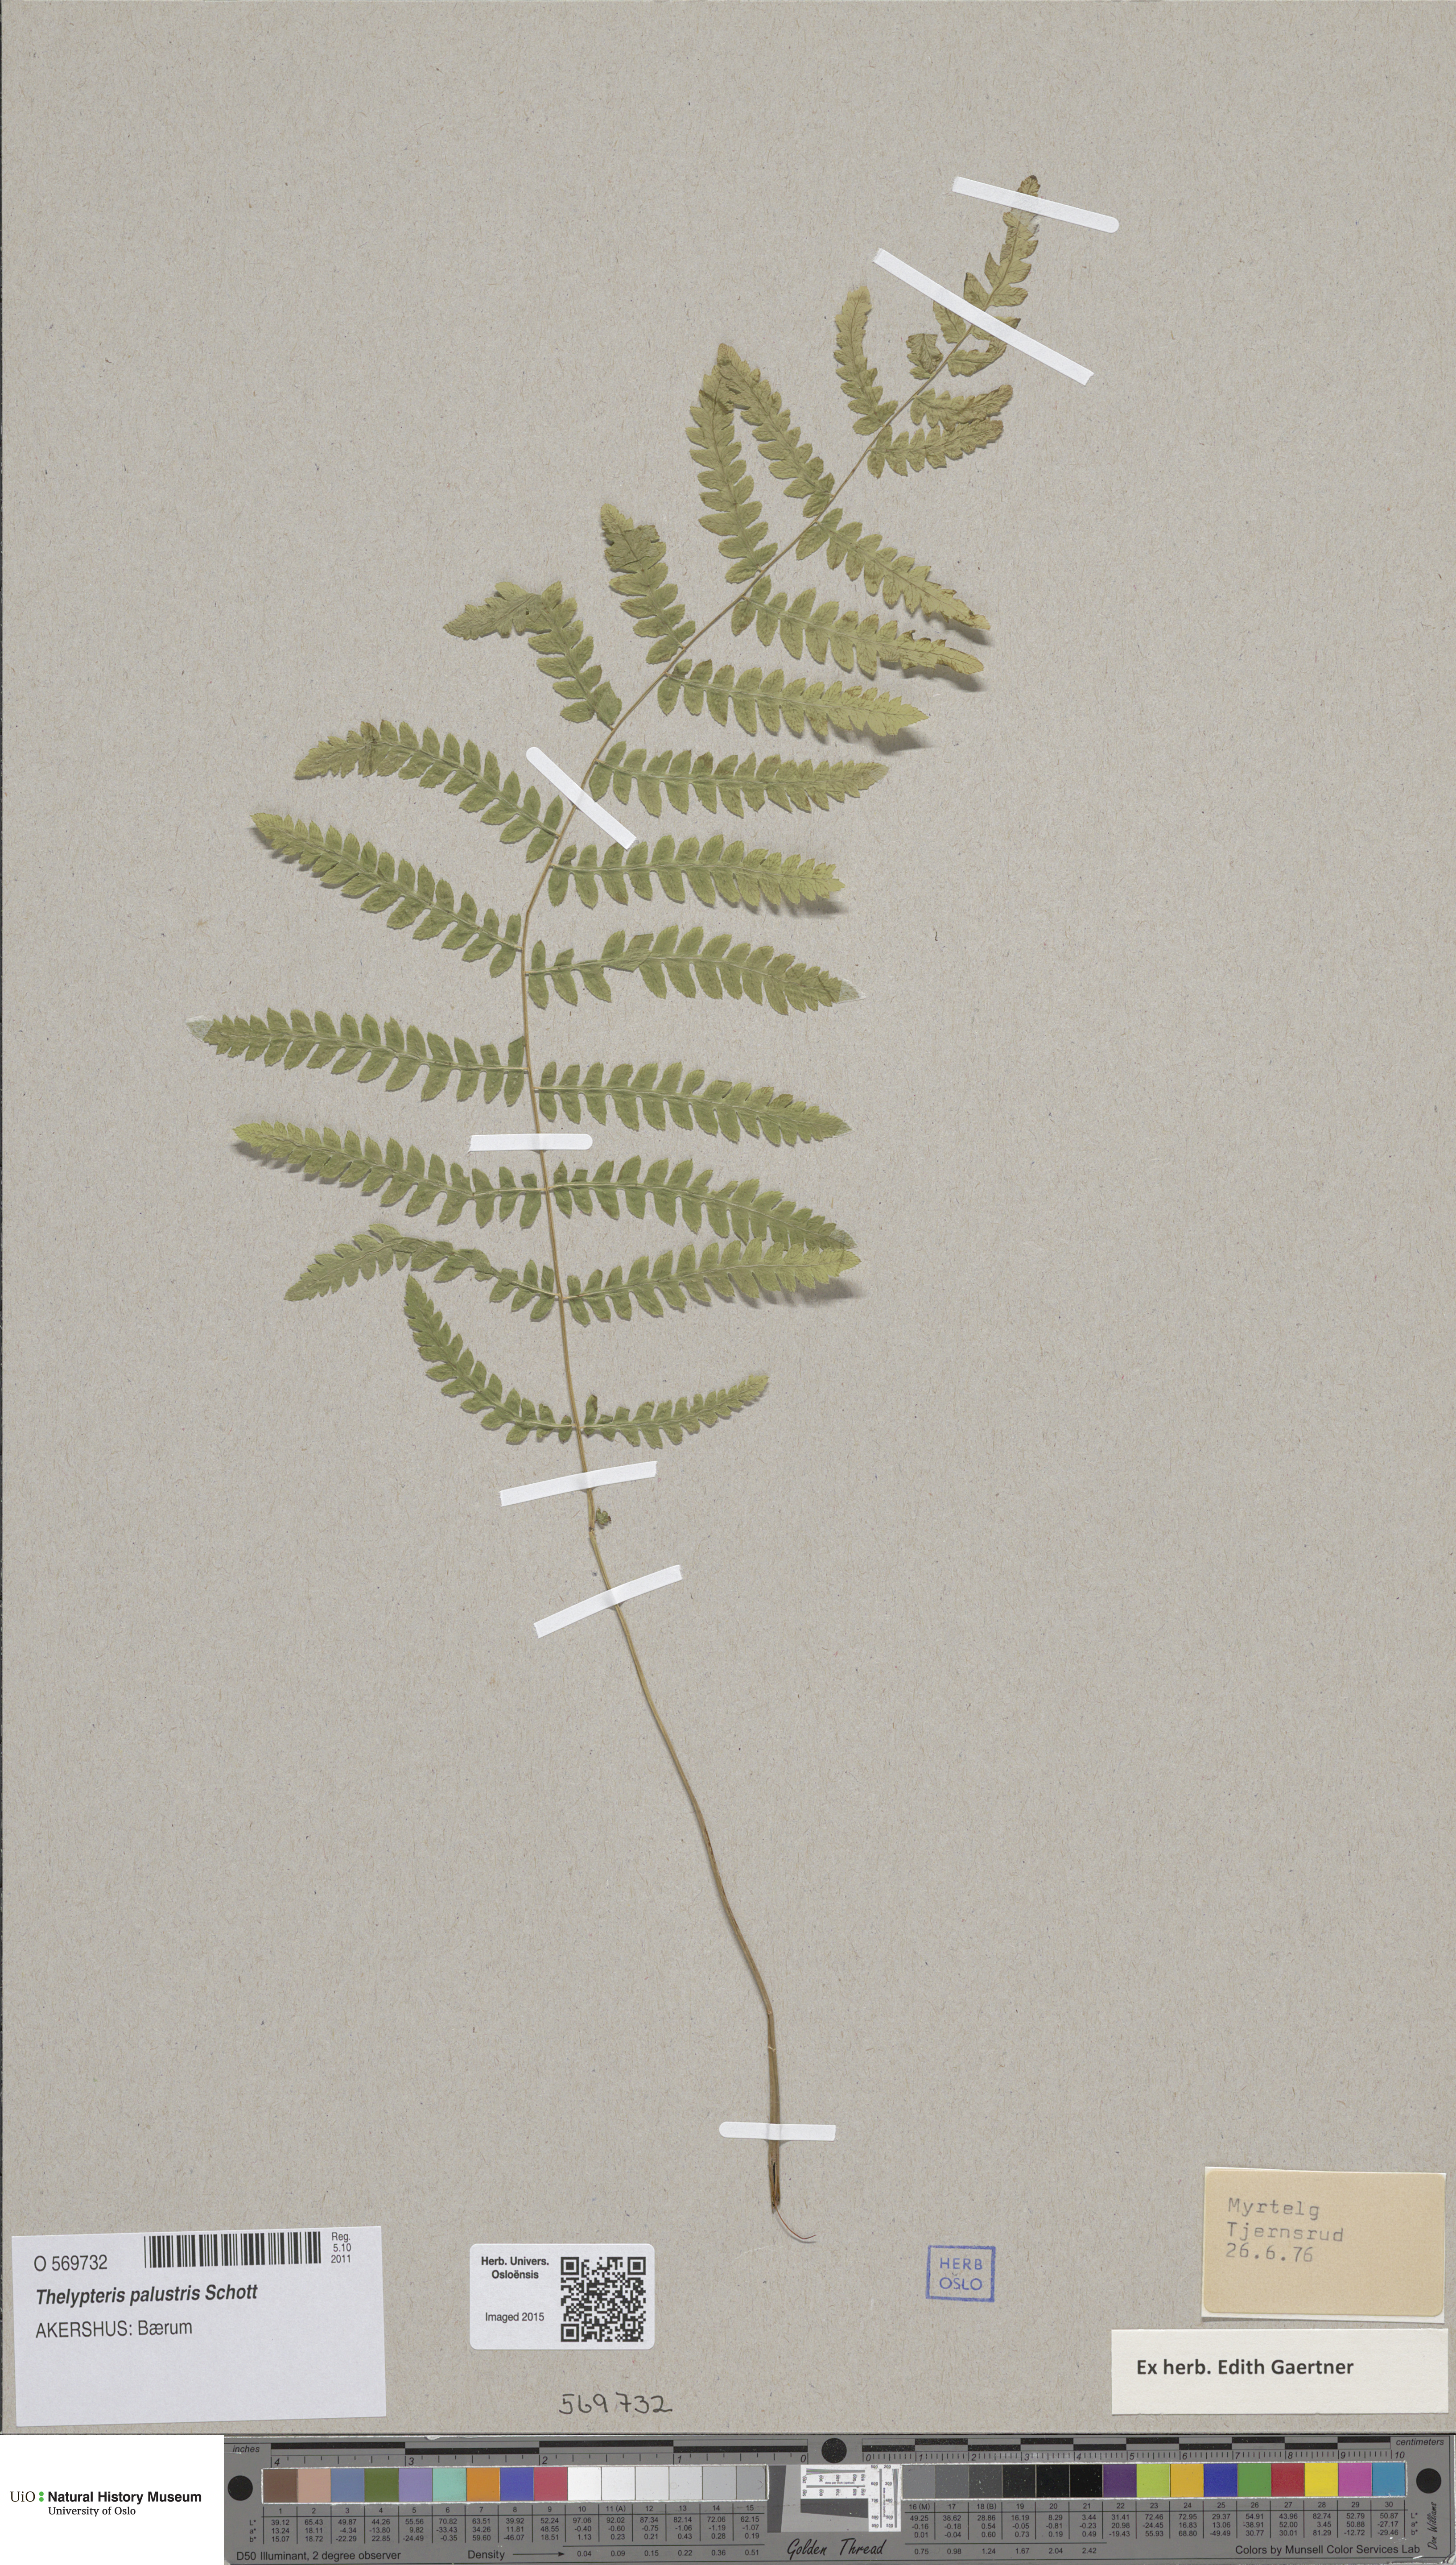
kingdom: Plantae
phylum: Tracheophyta
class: Polypodiopsida
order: Polypodiales
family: Thelypteridaceae
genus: Thelypteris
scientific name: Thelypteris palustris
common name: Marsh fern
